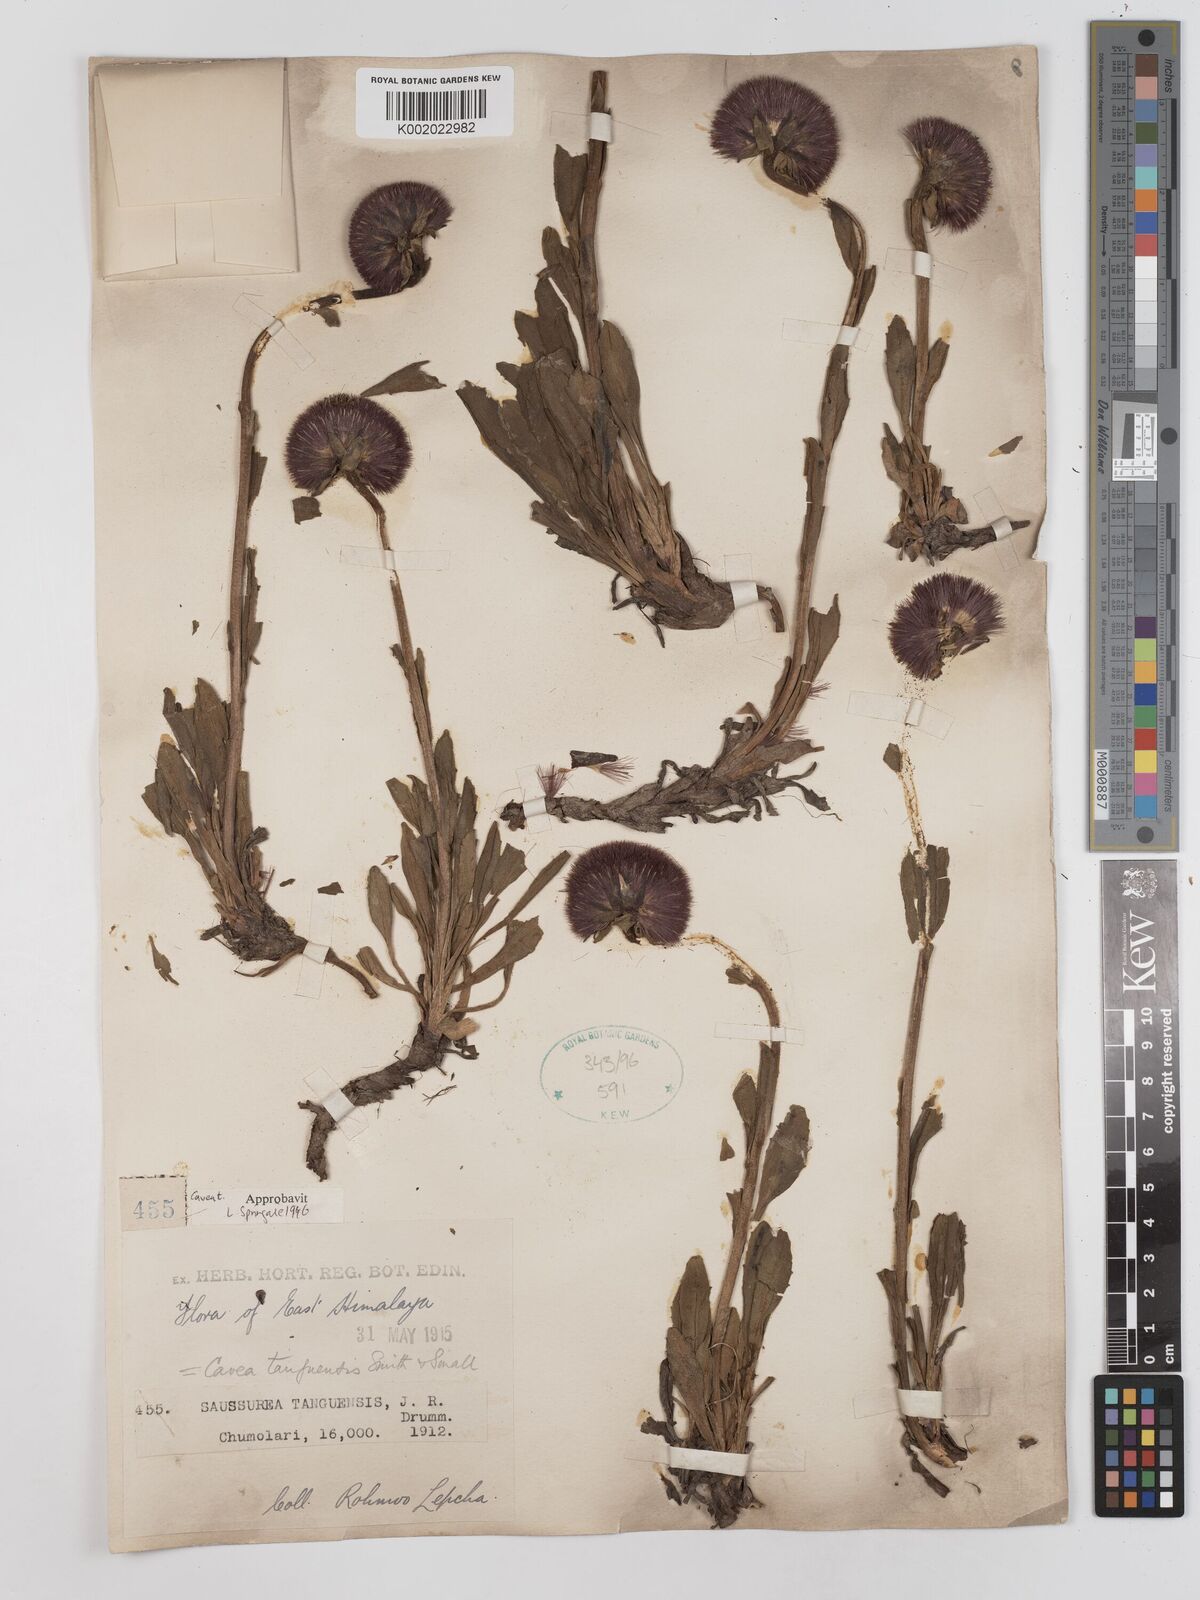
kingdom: Plantae
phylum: Tracheophyta
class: Magnoliopsida
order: Asterales
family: Asteraceae
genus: Cavea
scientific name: Cavea tanguensis
